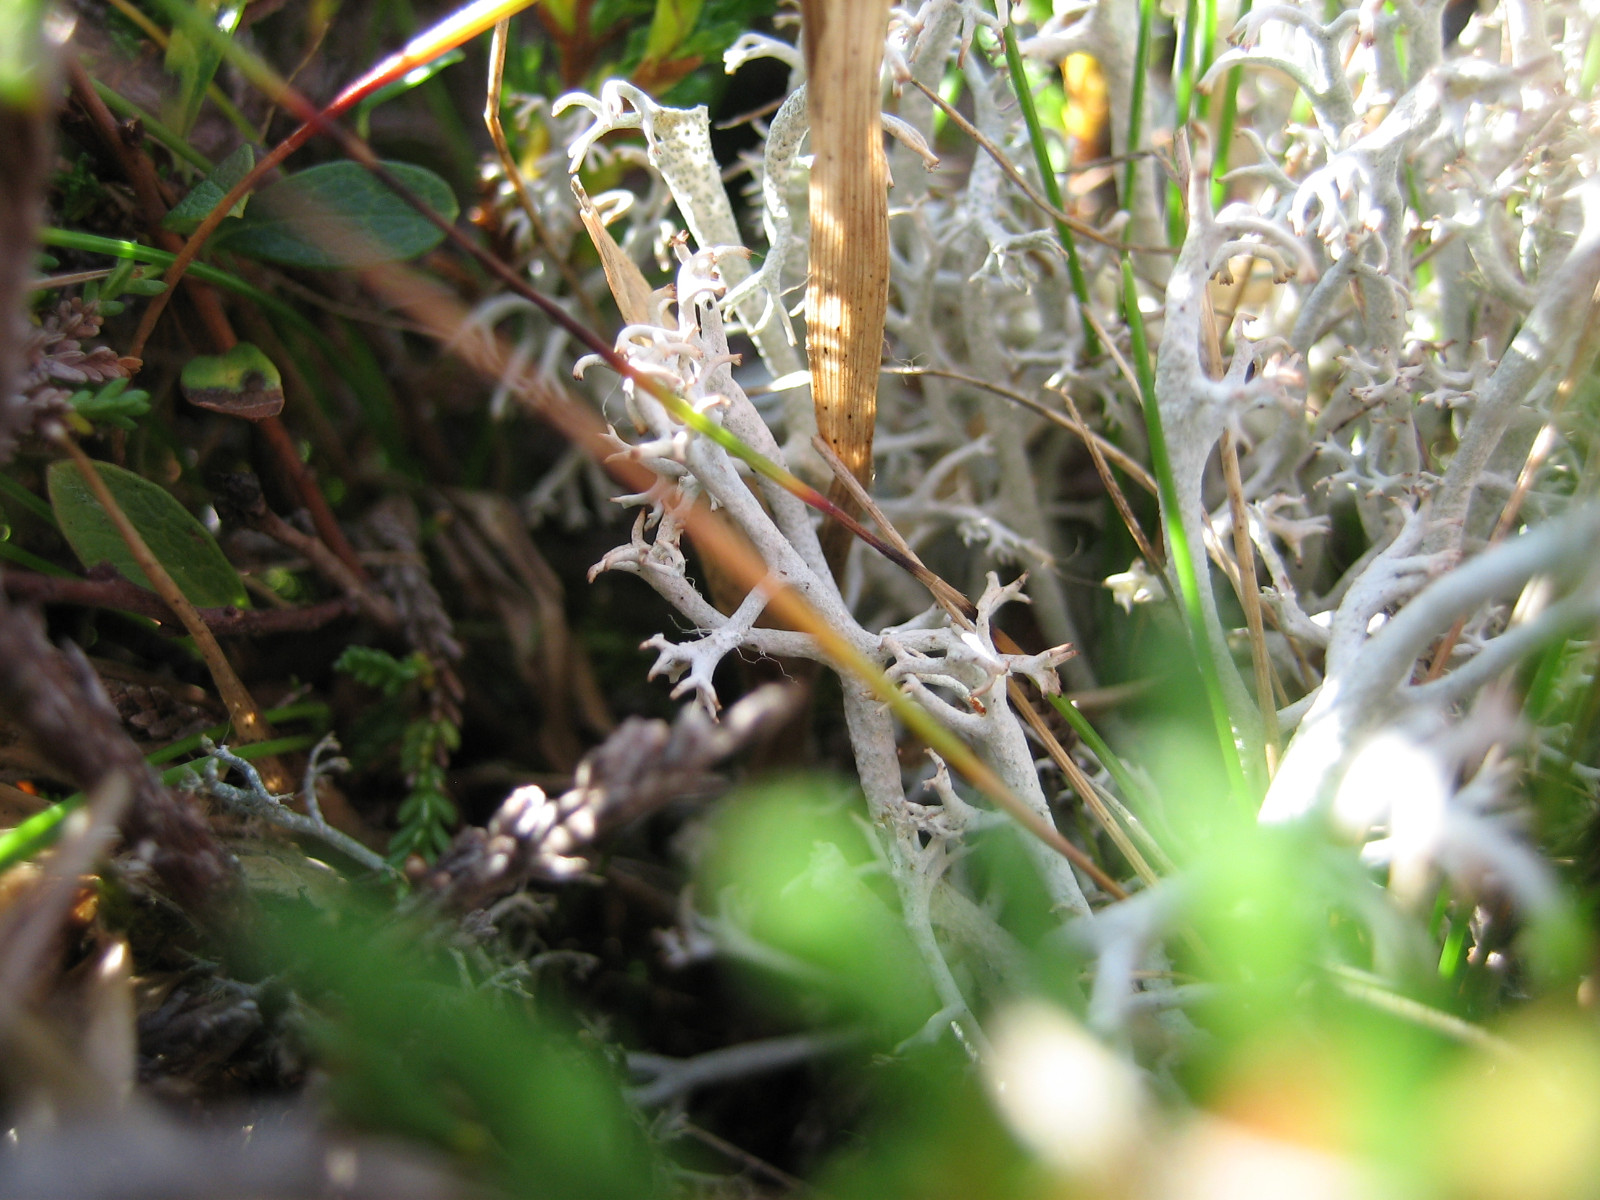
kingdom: Fungi
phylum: Ascomycota
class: Lecanoromycetes
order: Lecanorales
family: Cladoniaceae
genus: Cladonia
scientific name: Cladonia rangiferina
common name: askegrå rensdyrlav
